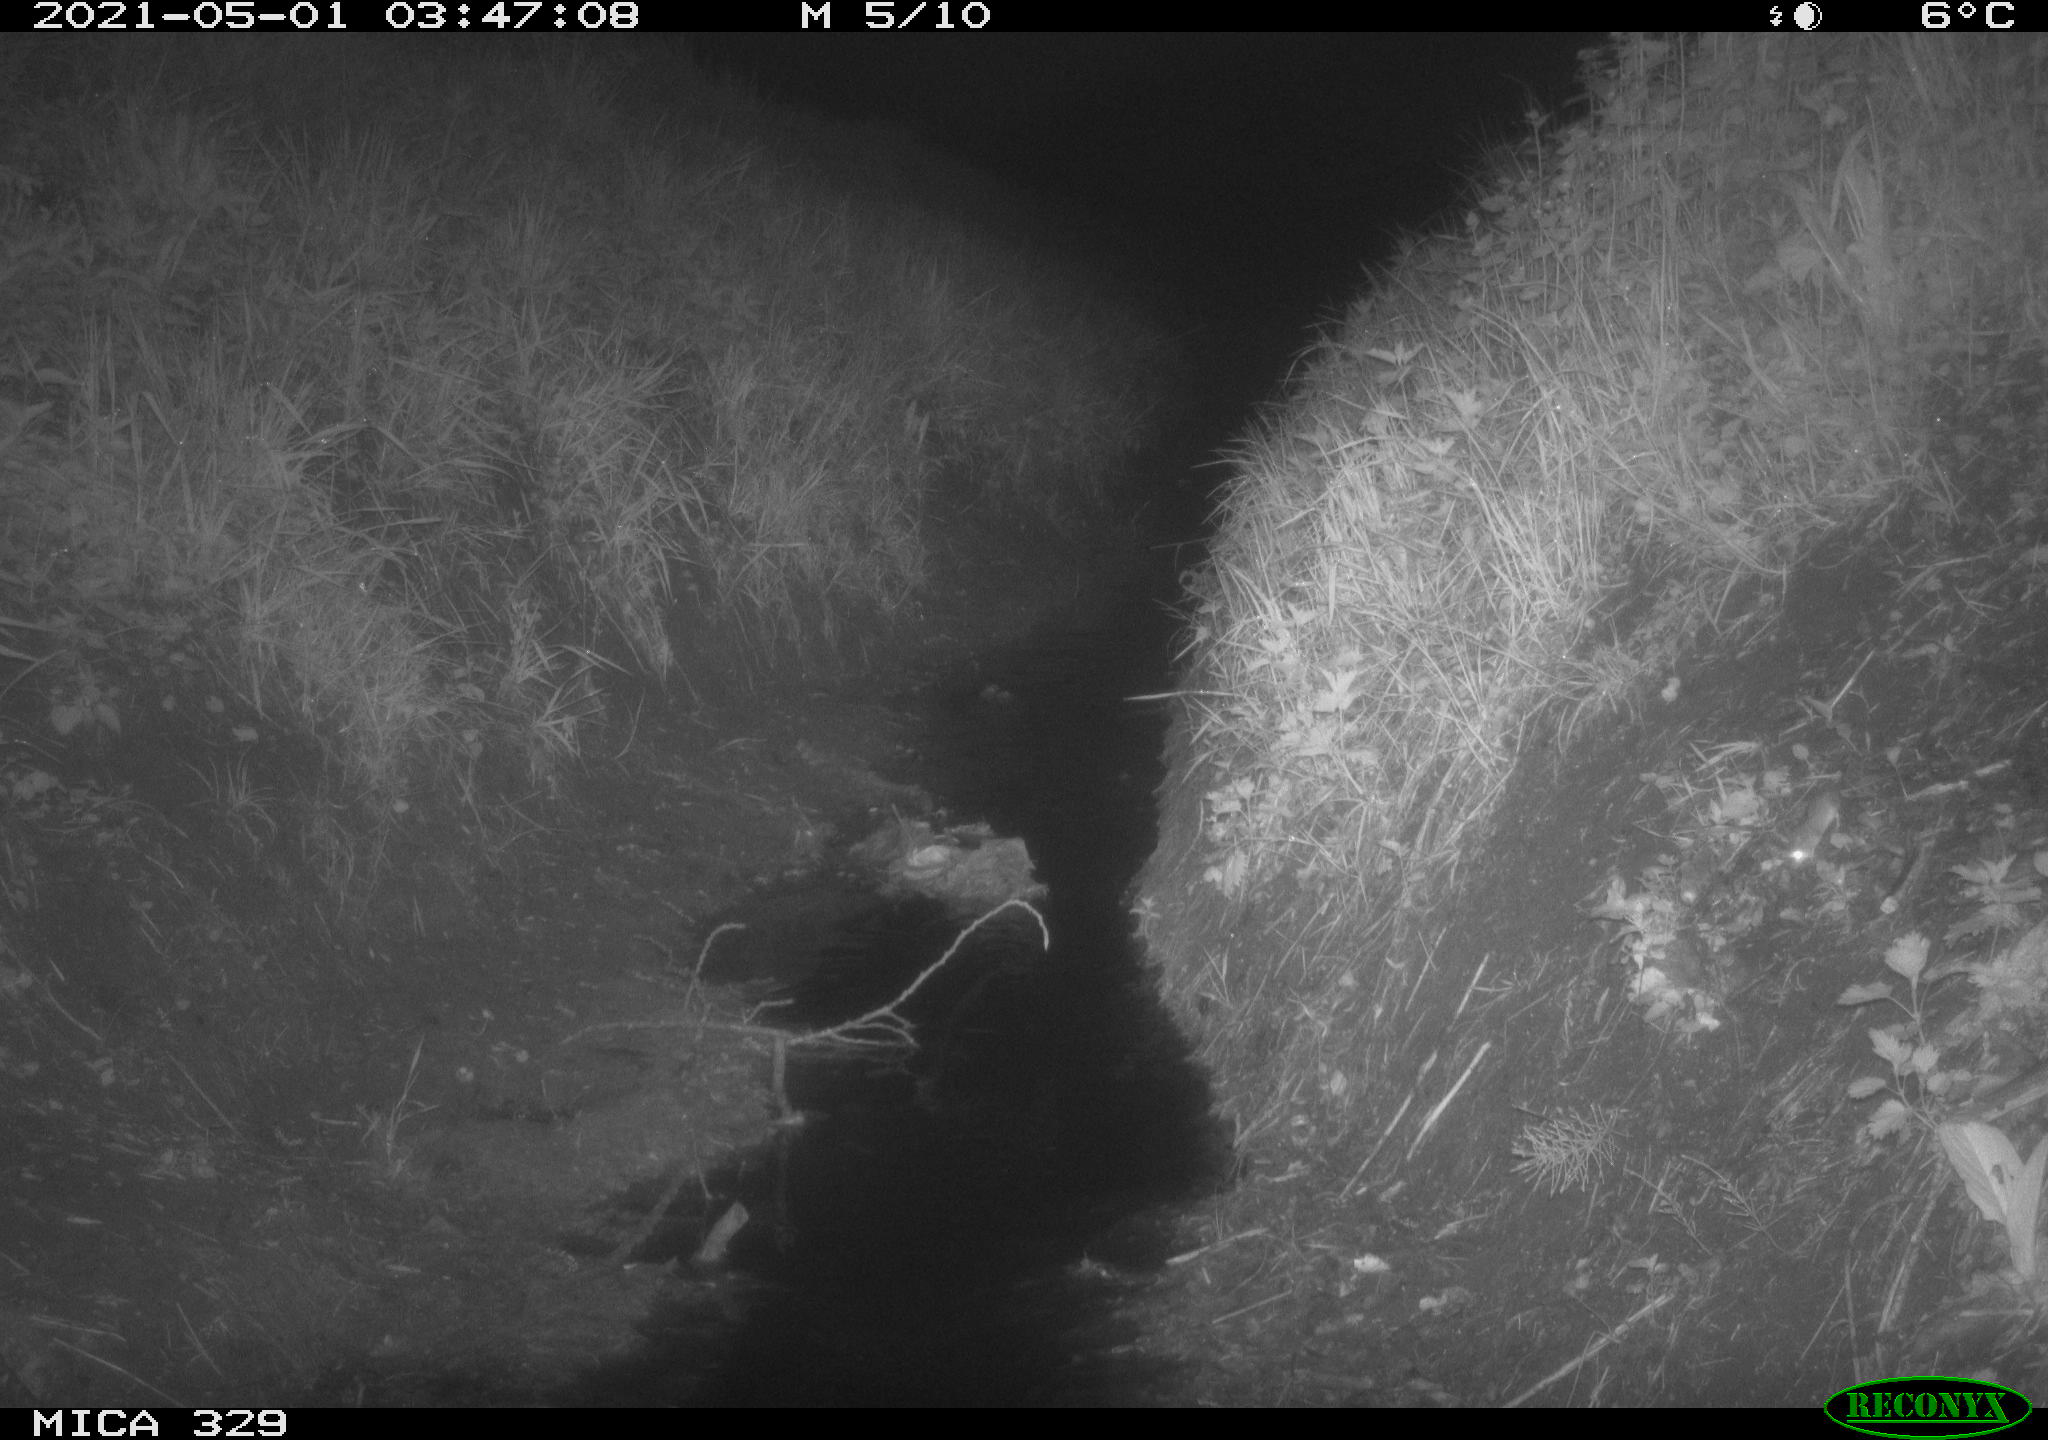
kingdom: Animalia
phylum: Chordata
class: Mammalia
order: Rodentia
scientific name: Rodentia
